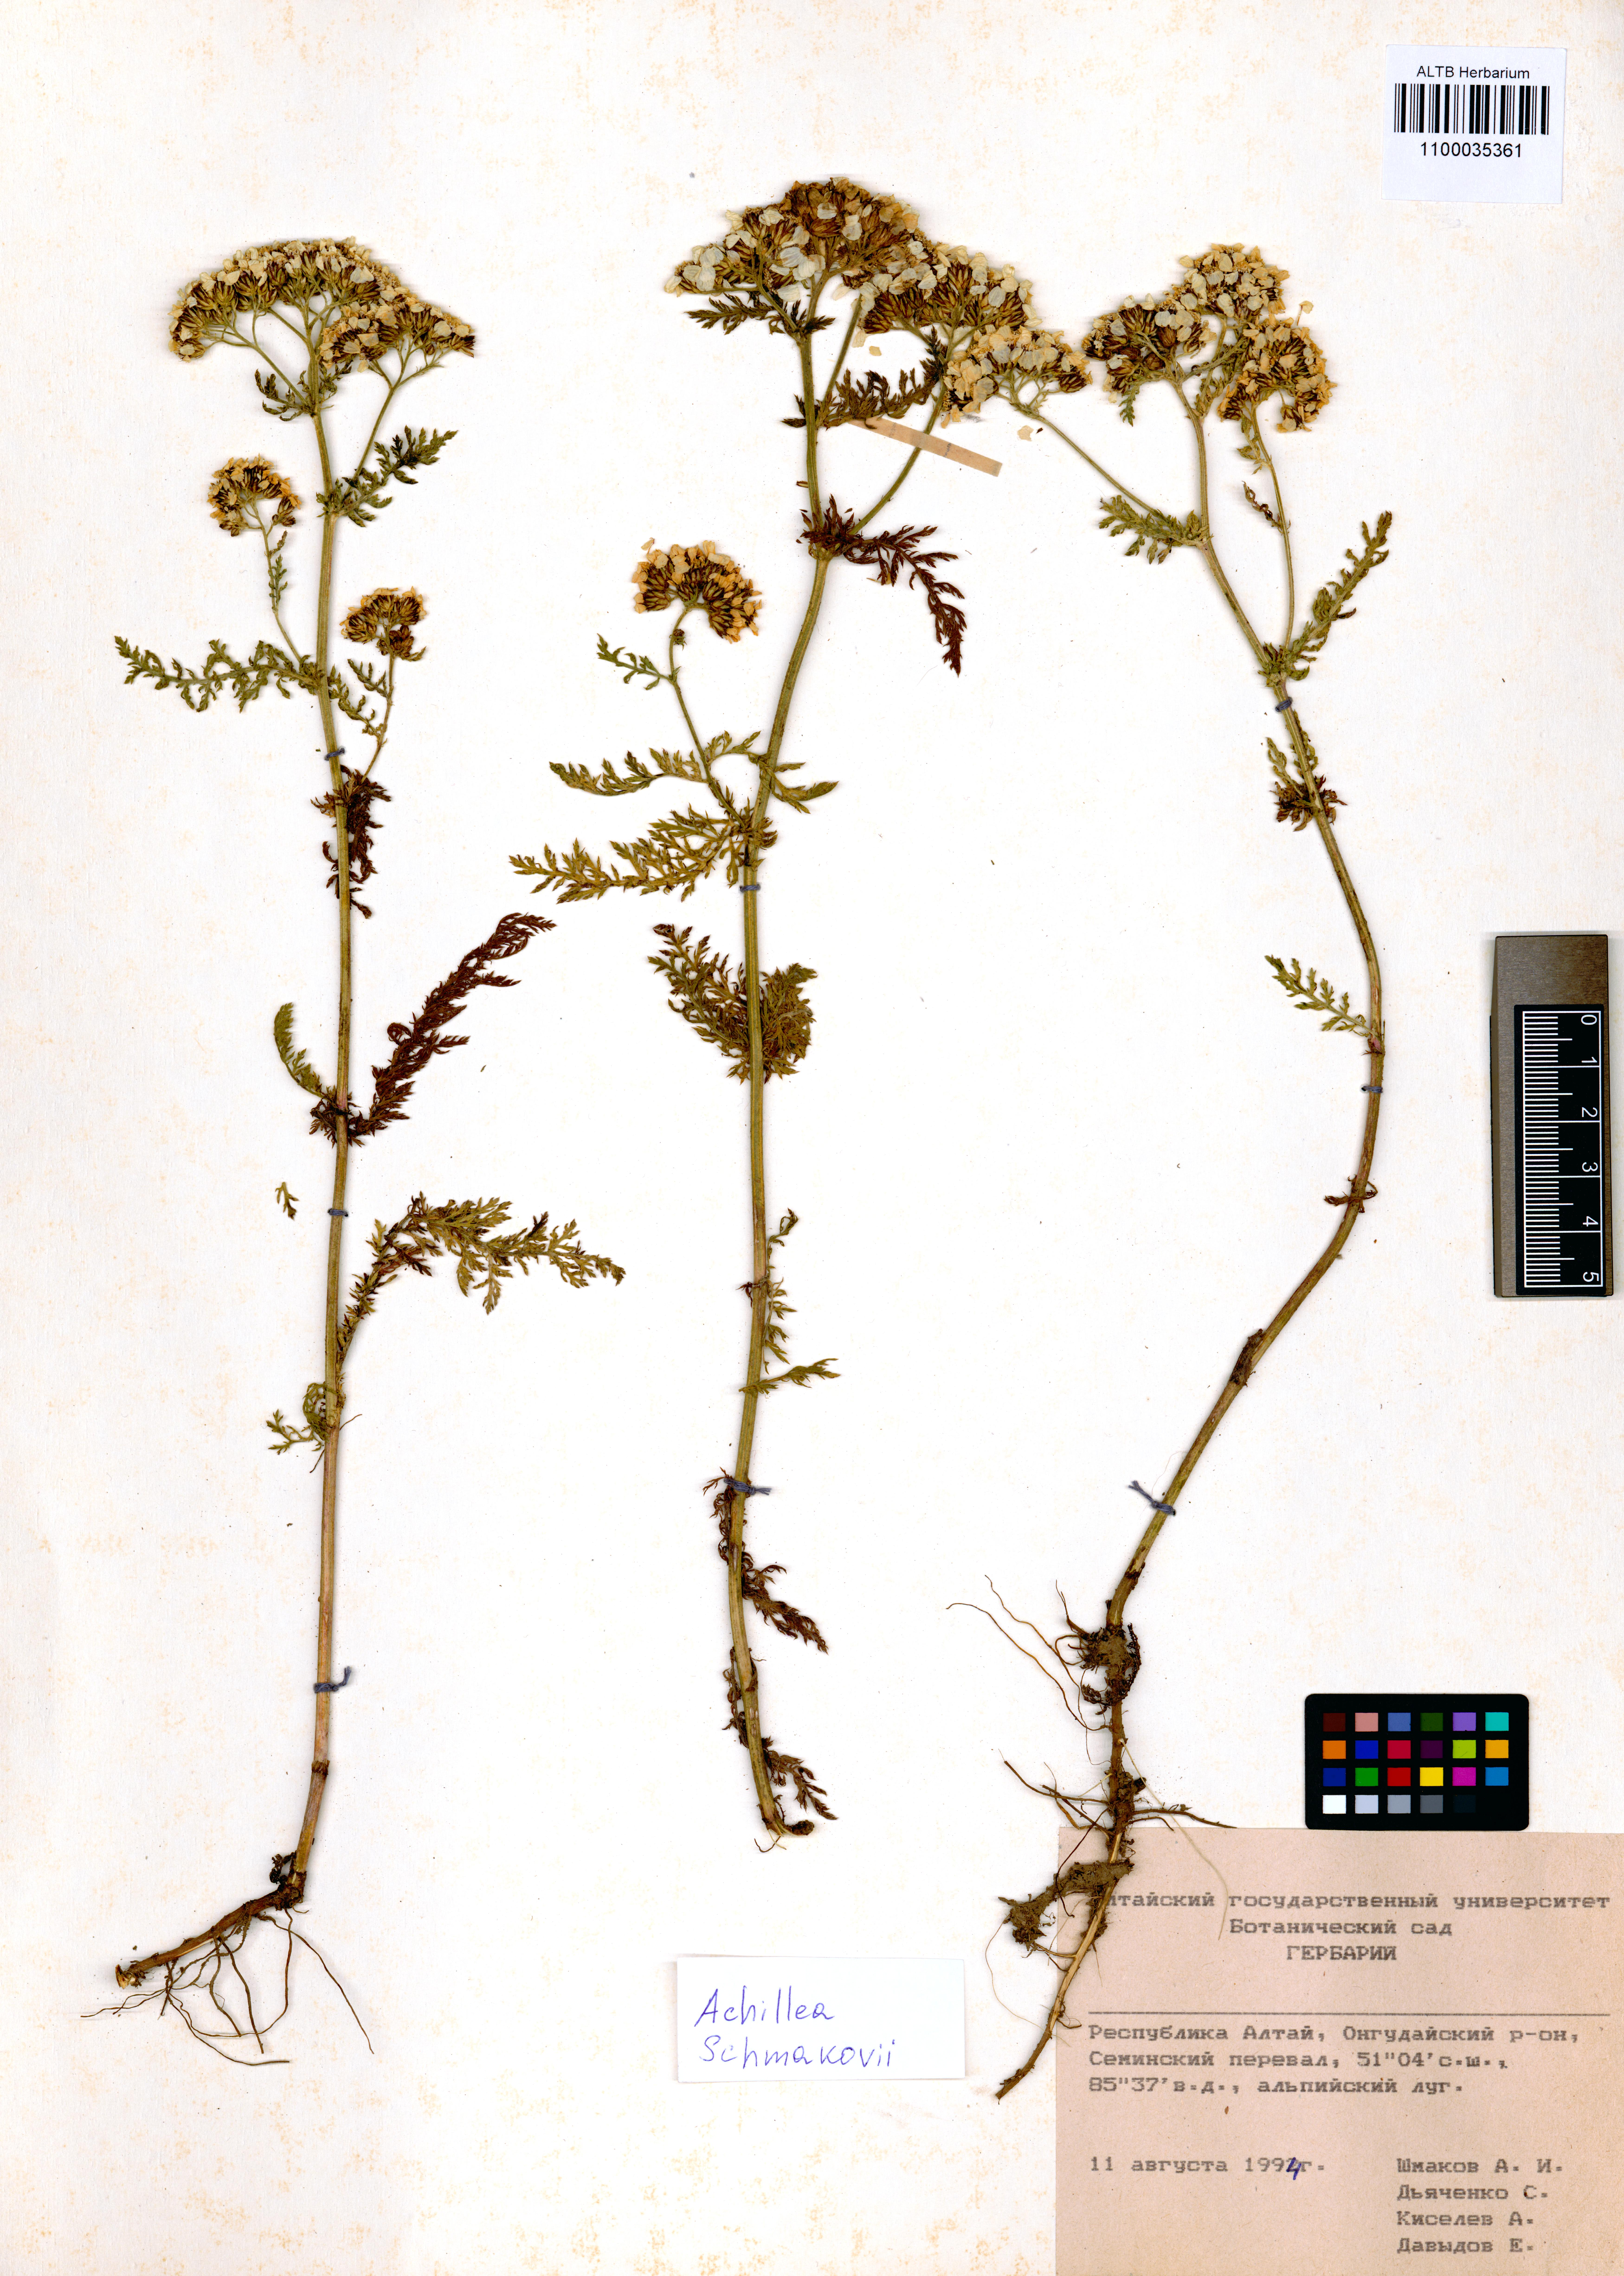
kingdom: Plantae
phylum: Tracheophyta
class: Magnoliopsida
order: Asterales
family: Asteraceae
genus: Achillea
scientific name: Achillea schmakovii
